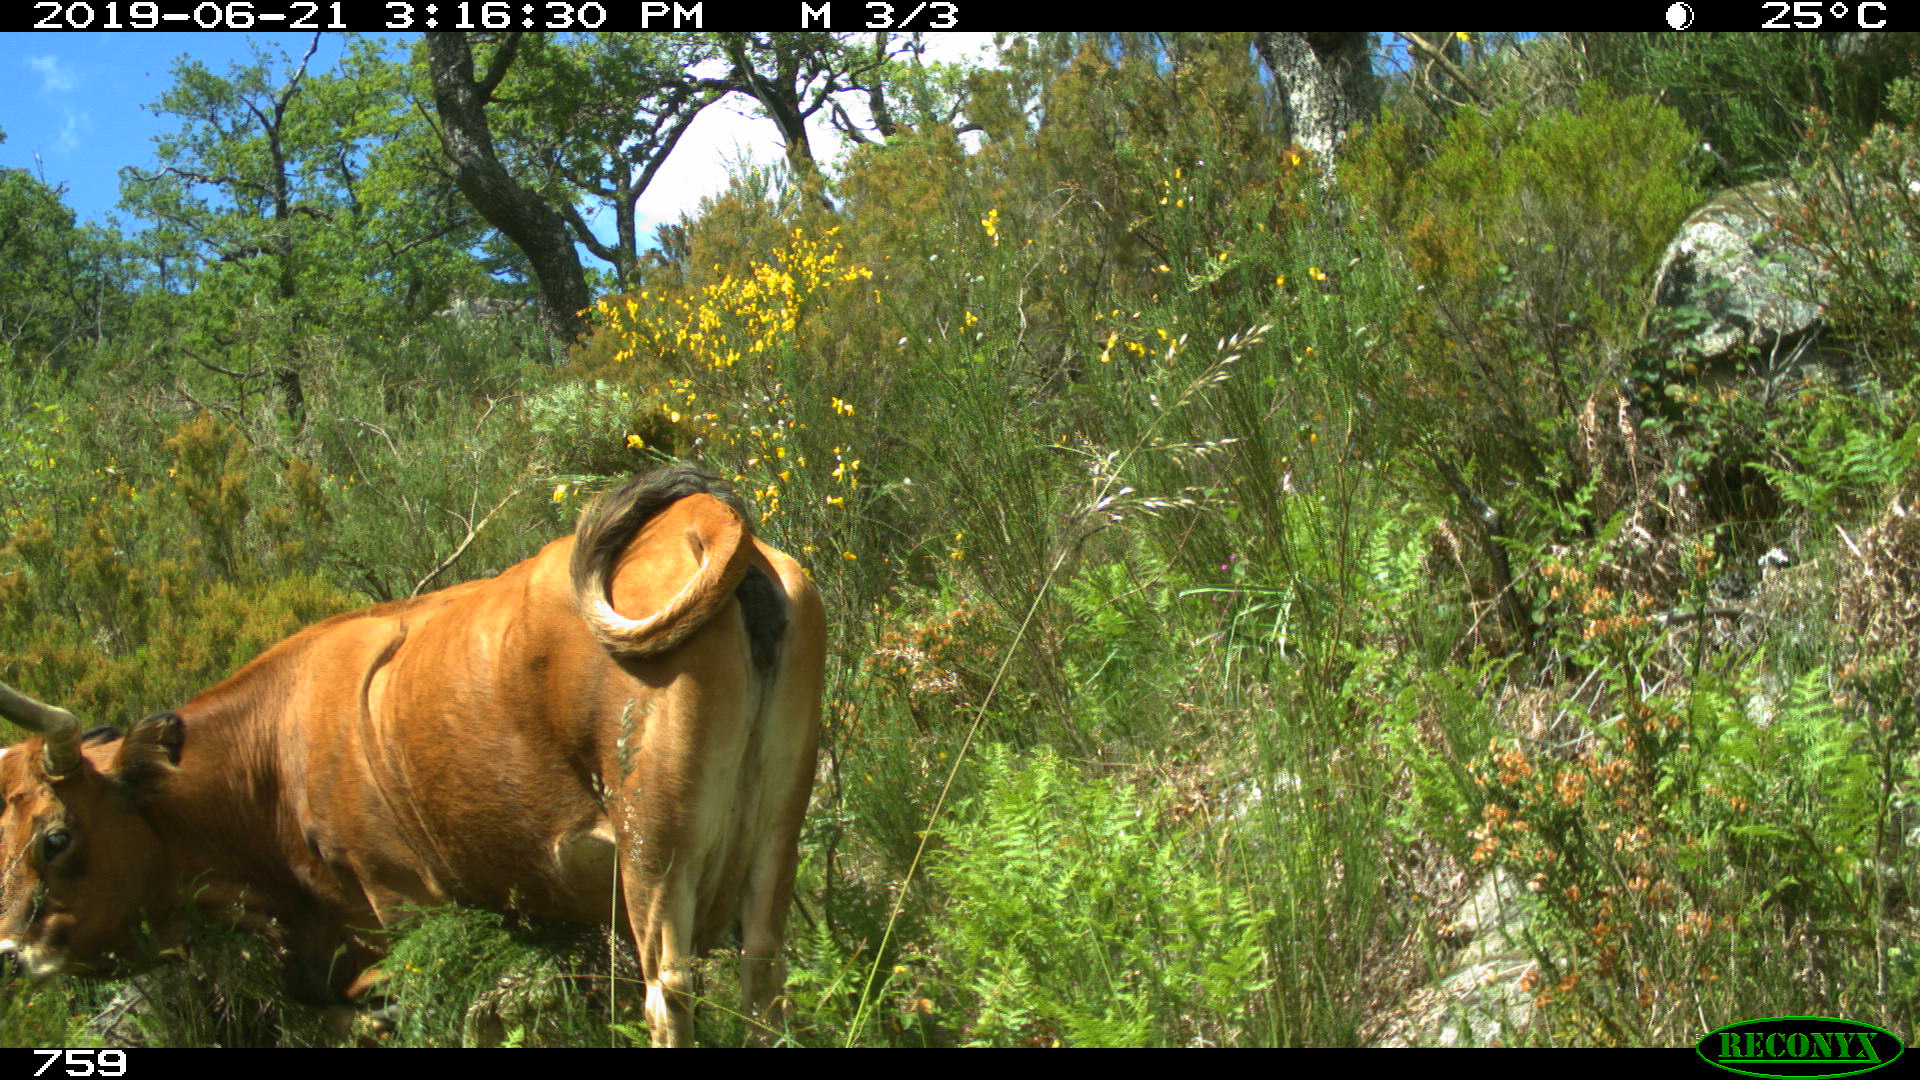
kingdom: Animalia
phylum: Chordata
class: Mammalia
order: Artiodactyla
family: Bovidae
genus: Bos
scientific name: Bos taurus
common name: Domesticated cattle
